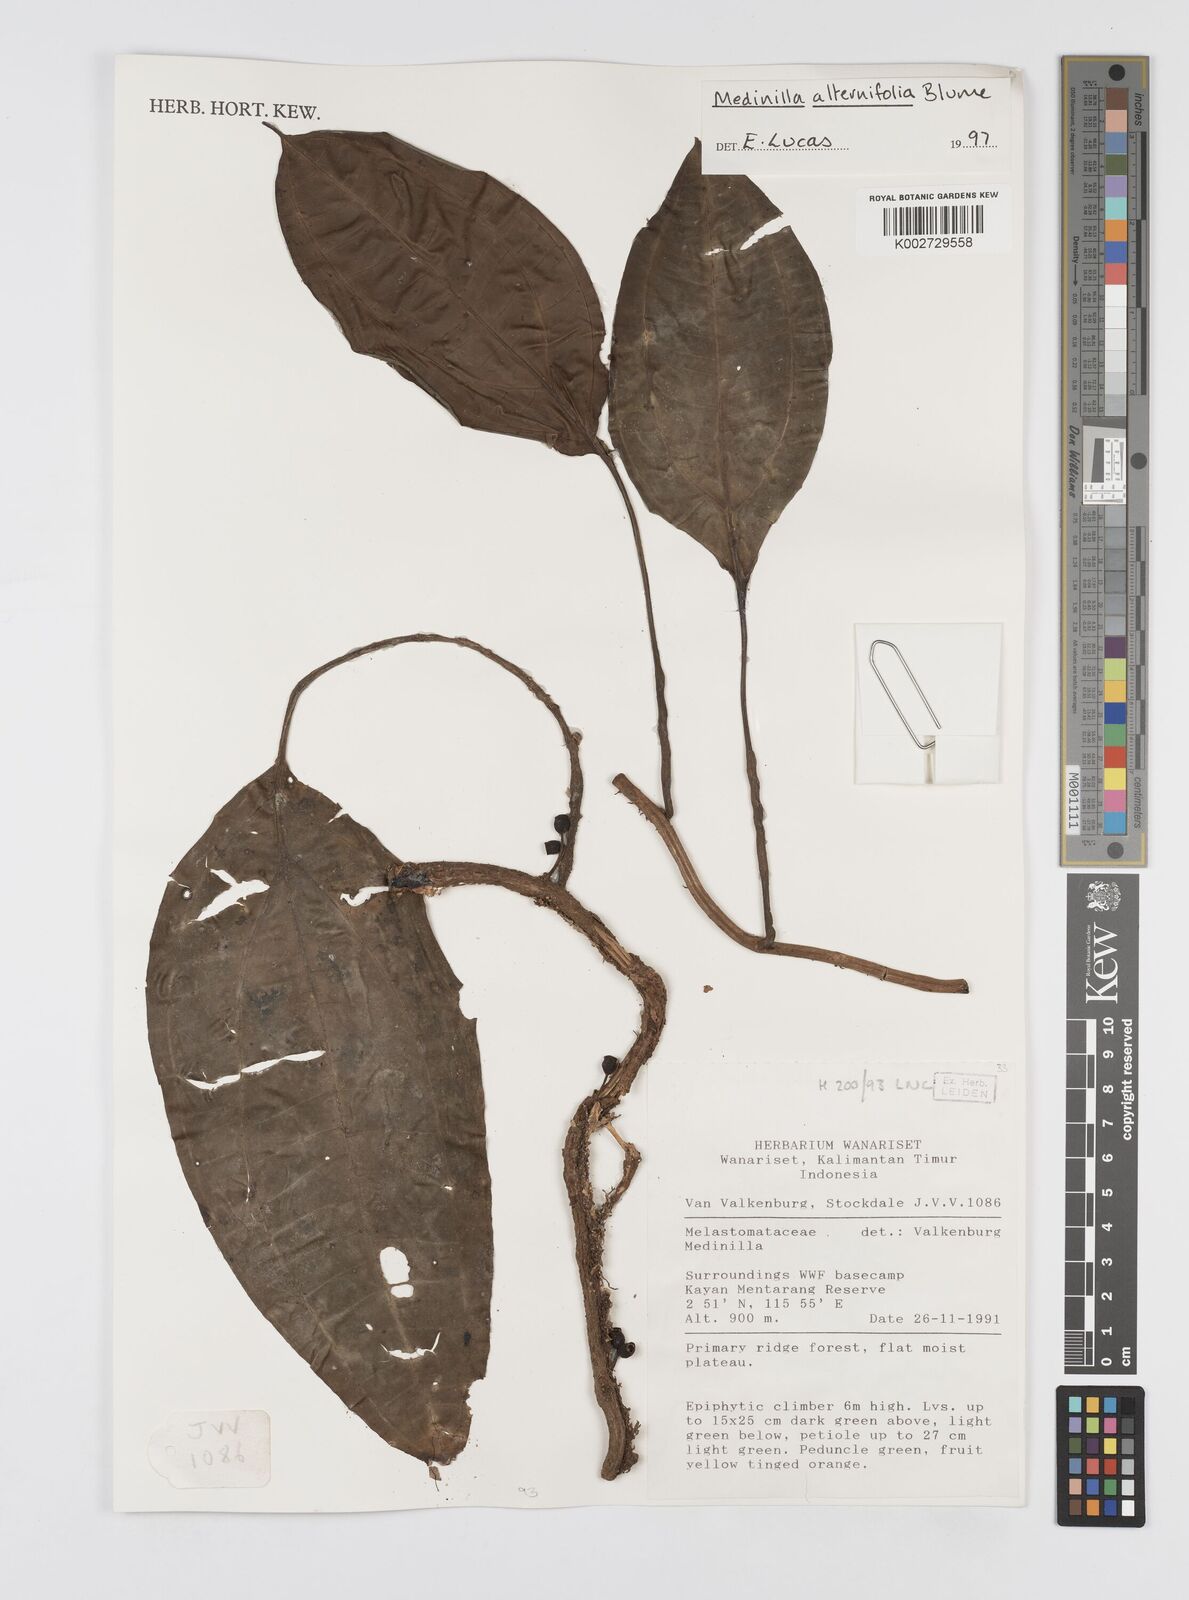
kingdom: Plantae
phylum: Tracheophyta
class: Magnoliopsida
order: Myrtales
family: Melastomataceae
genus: Heteroblemma
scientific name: Heteroblemma alternifolium
